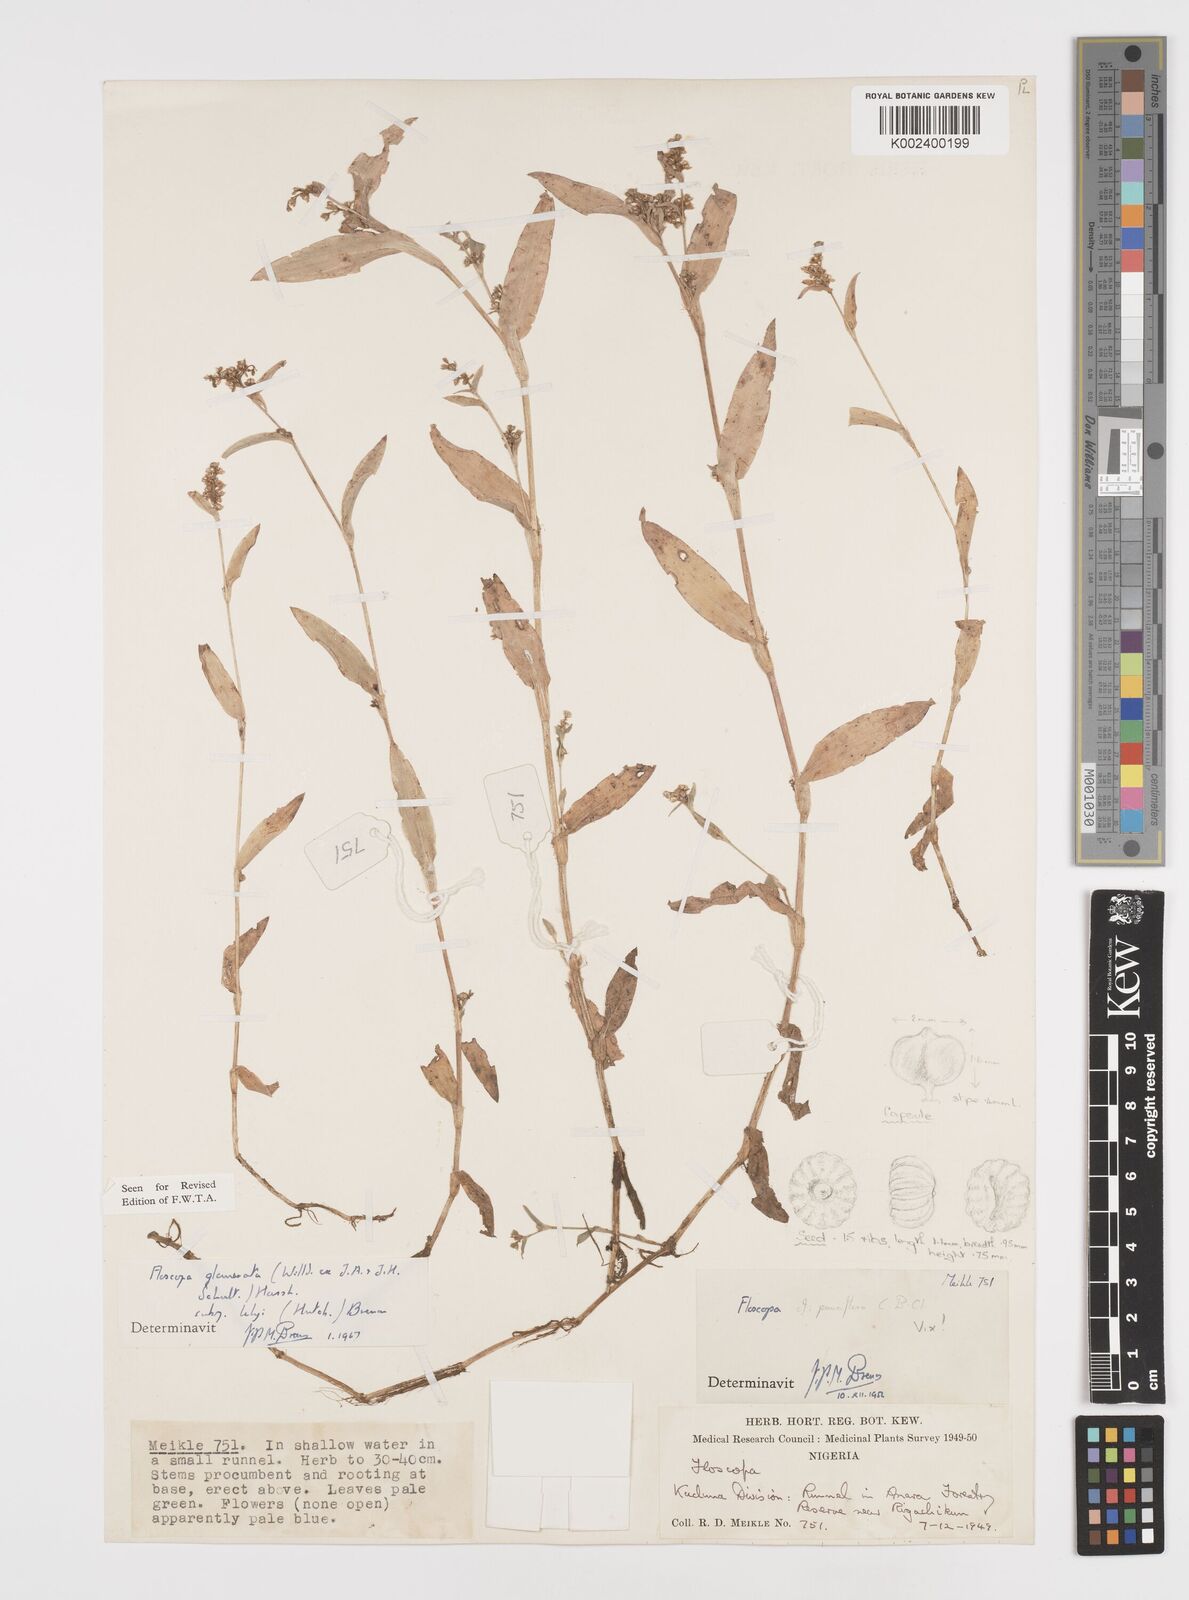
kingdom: Plantae
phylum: Tracheophyta
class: Liliopsida
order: Commelinales
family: Commelinaceae
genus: Floscopa
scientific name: Floscopa glomerata
